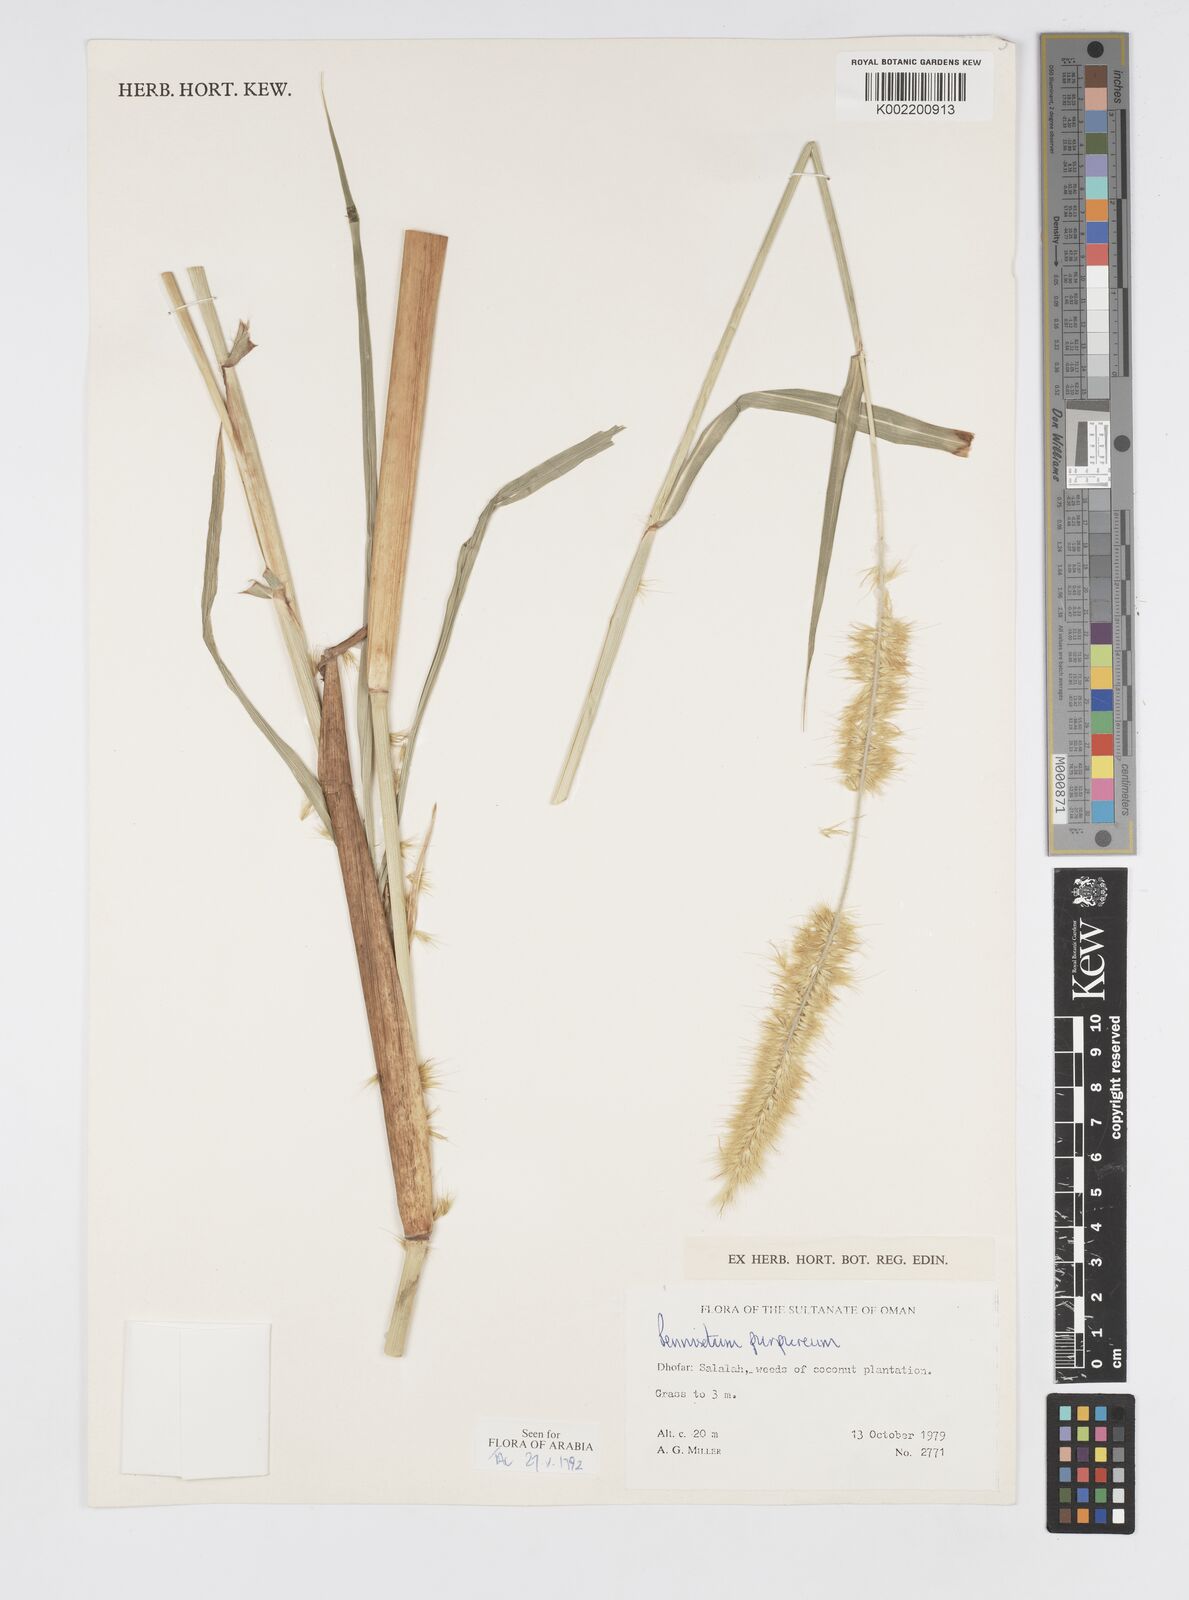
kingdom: Plantae
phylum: Tracheophyta
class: Liliopsida
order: Poales
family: Poaceae
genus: Cenchrus
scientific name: Cenchrus purpureus
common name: Elephant grass
